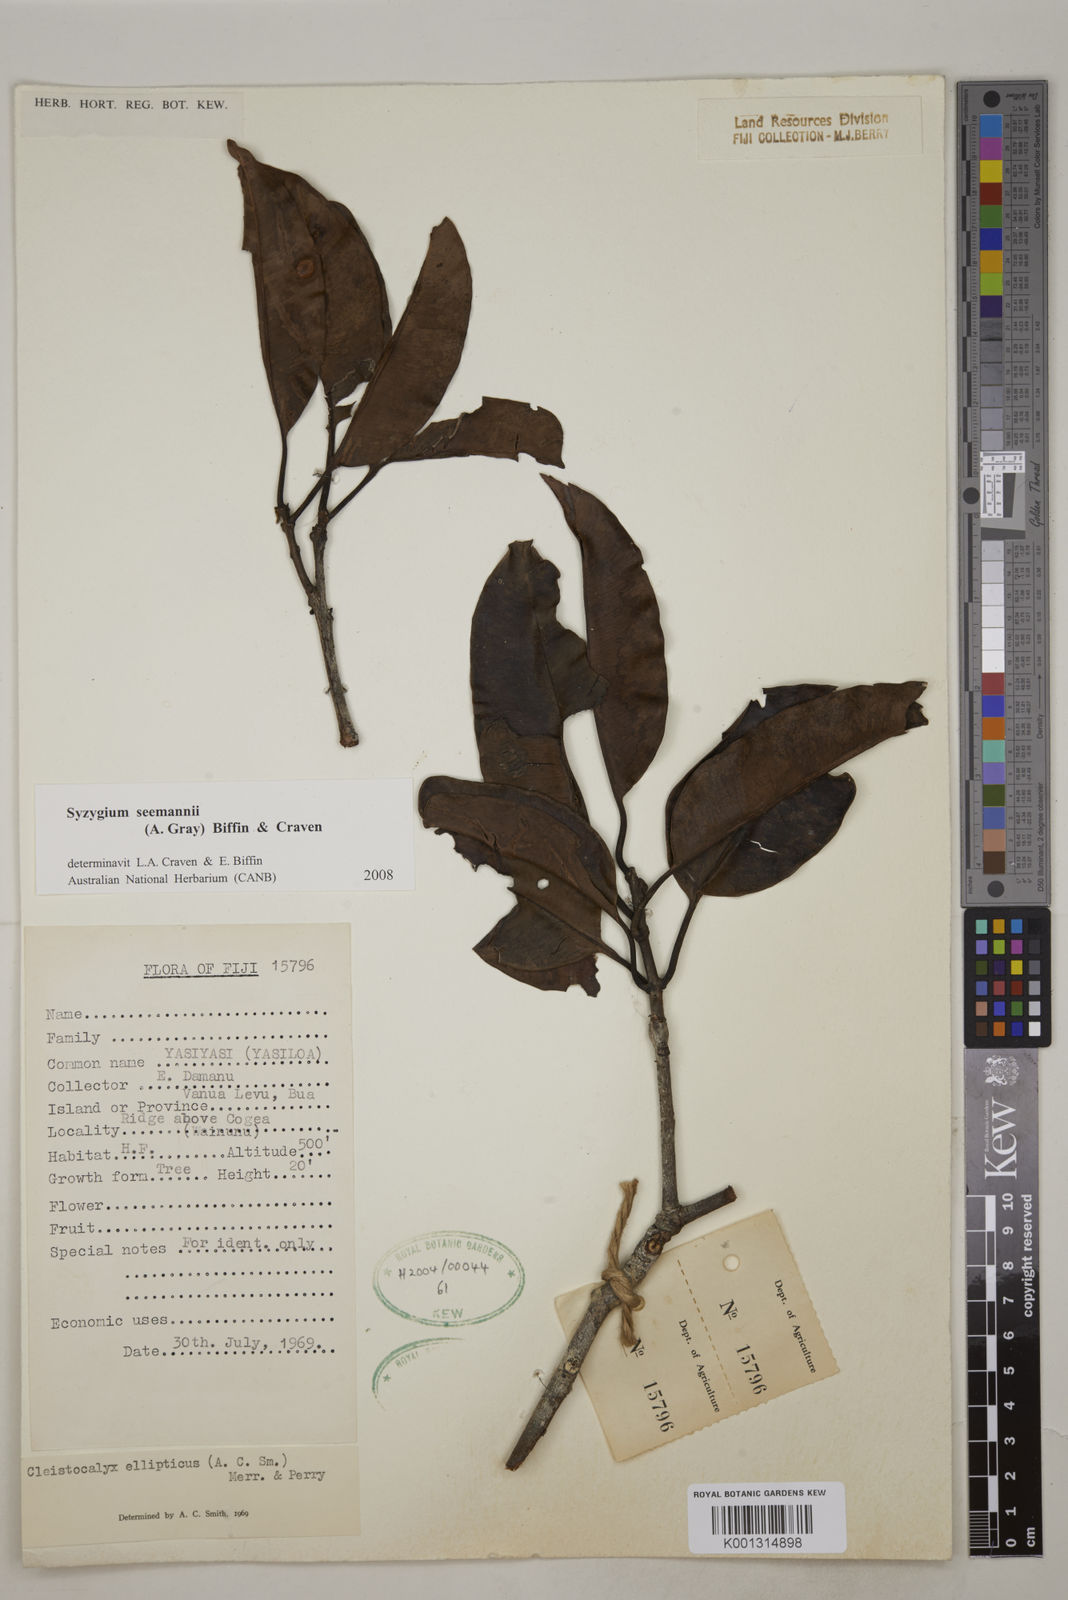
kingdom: Plantae
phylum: Tracheophyta
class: Magnoliopsida
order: Myrtales
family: Myrtaceae
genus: Syzygium
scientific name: Syzygium seemannii
